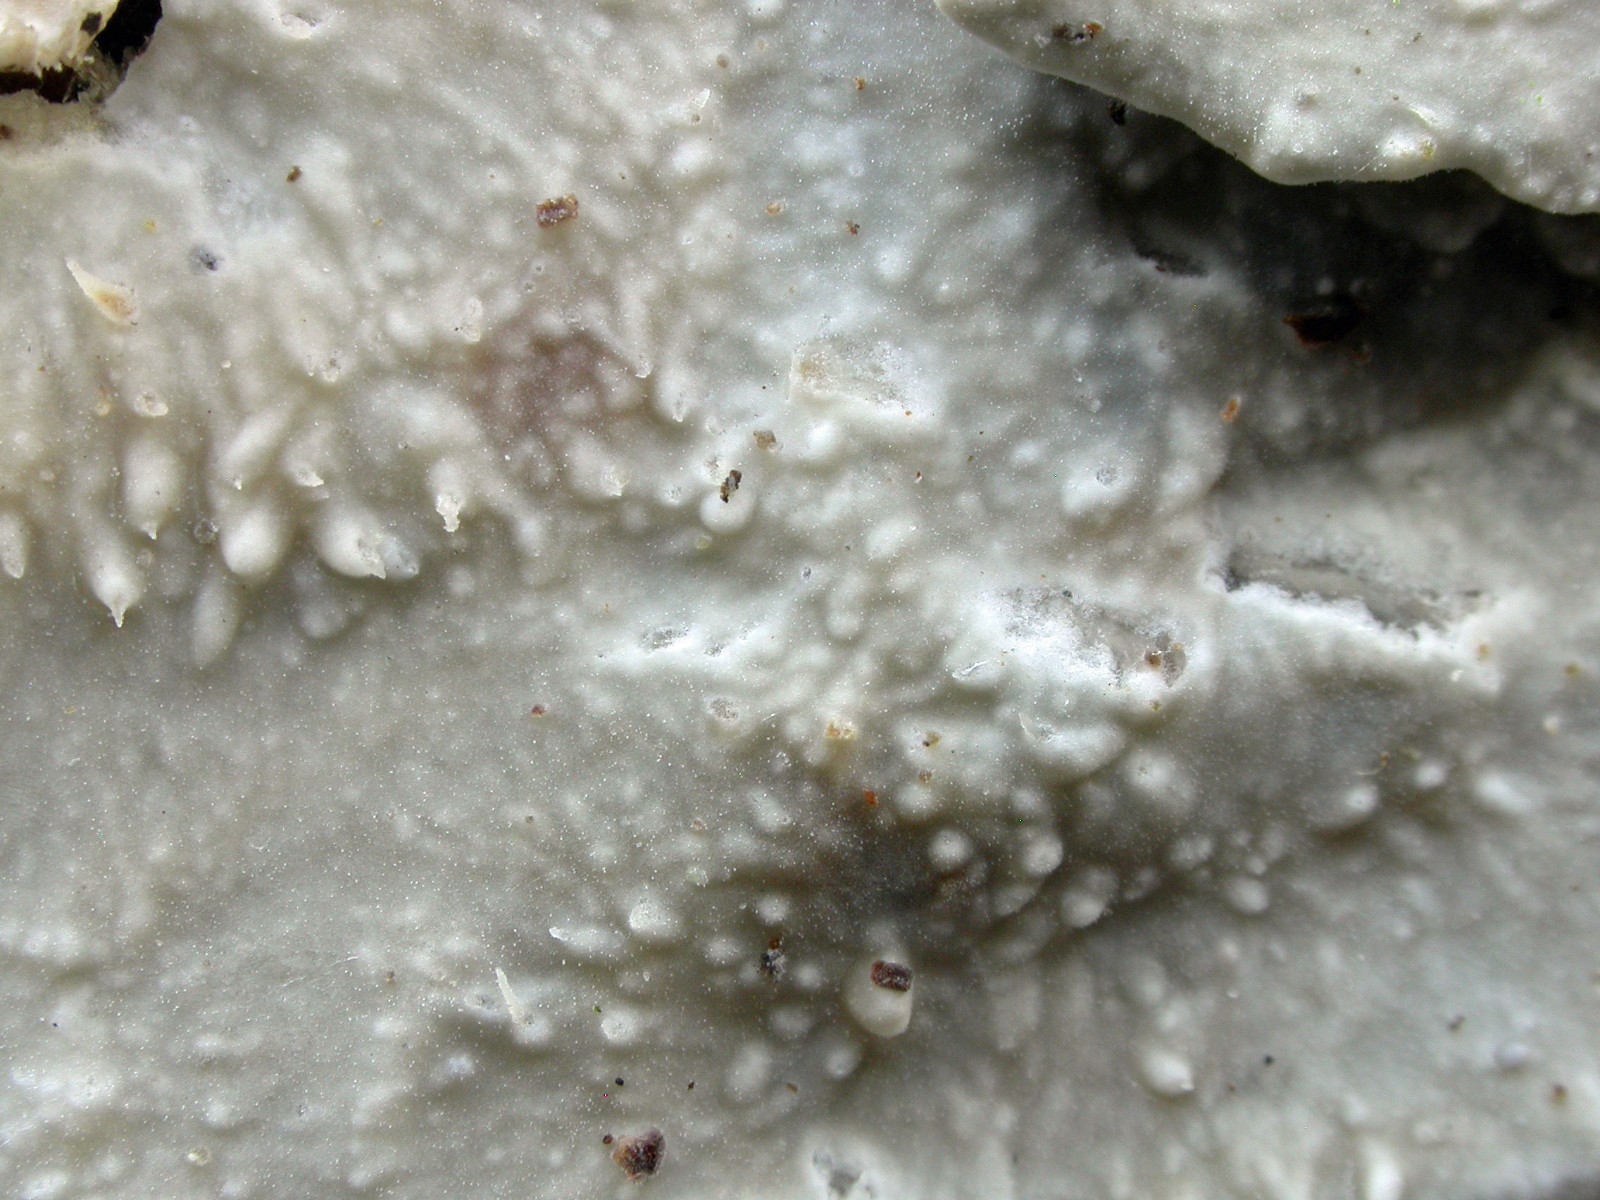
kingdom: Fungi
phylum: Basidiomycota
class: Agaricomycetes
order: Polyporales
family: Phanerochaetaceae
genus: Phlebiopsis
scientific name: Phlebiopsis gigantea
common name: kæmpebarksvamp
